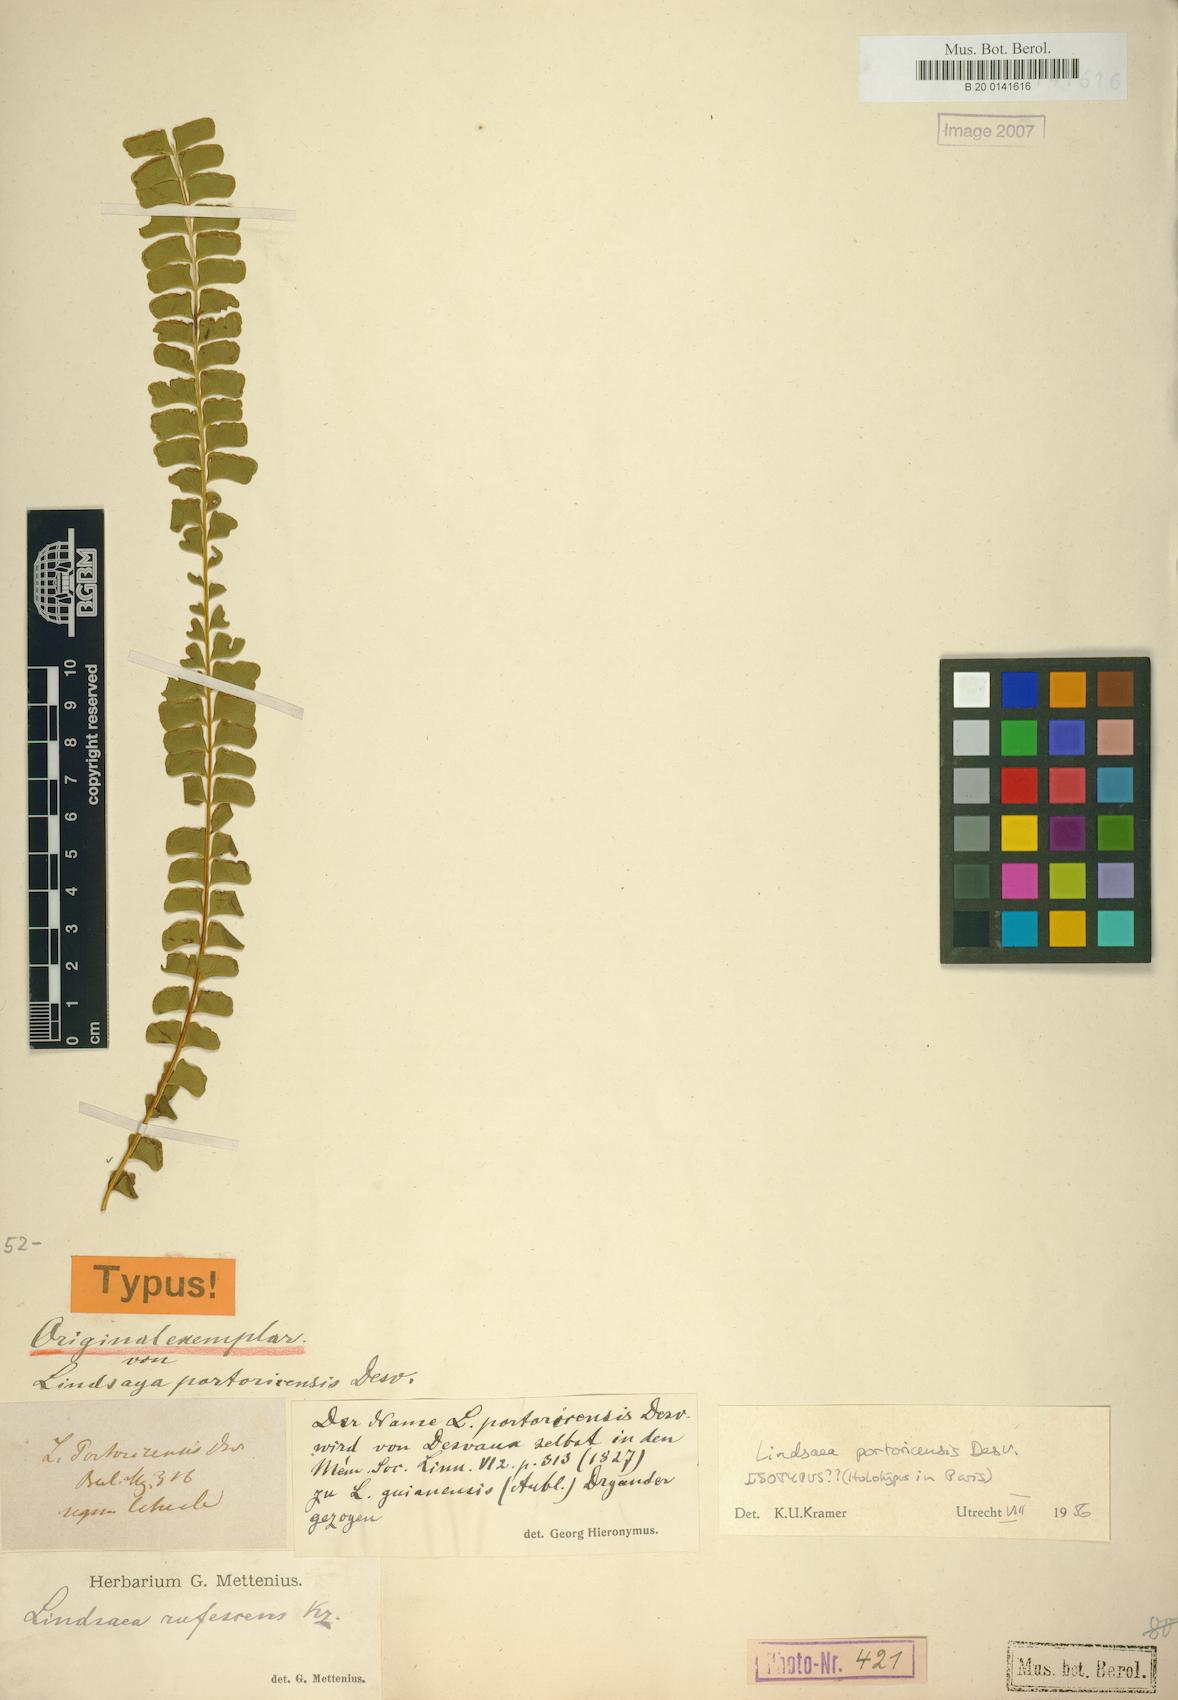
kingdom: Plantae
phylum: Tracheophyta
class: Polypodiopsida
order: Polypodiales
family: Lindsaeaceae
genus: Lindsaea
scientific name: Lindsaea portoricensis
